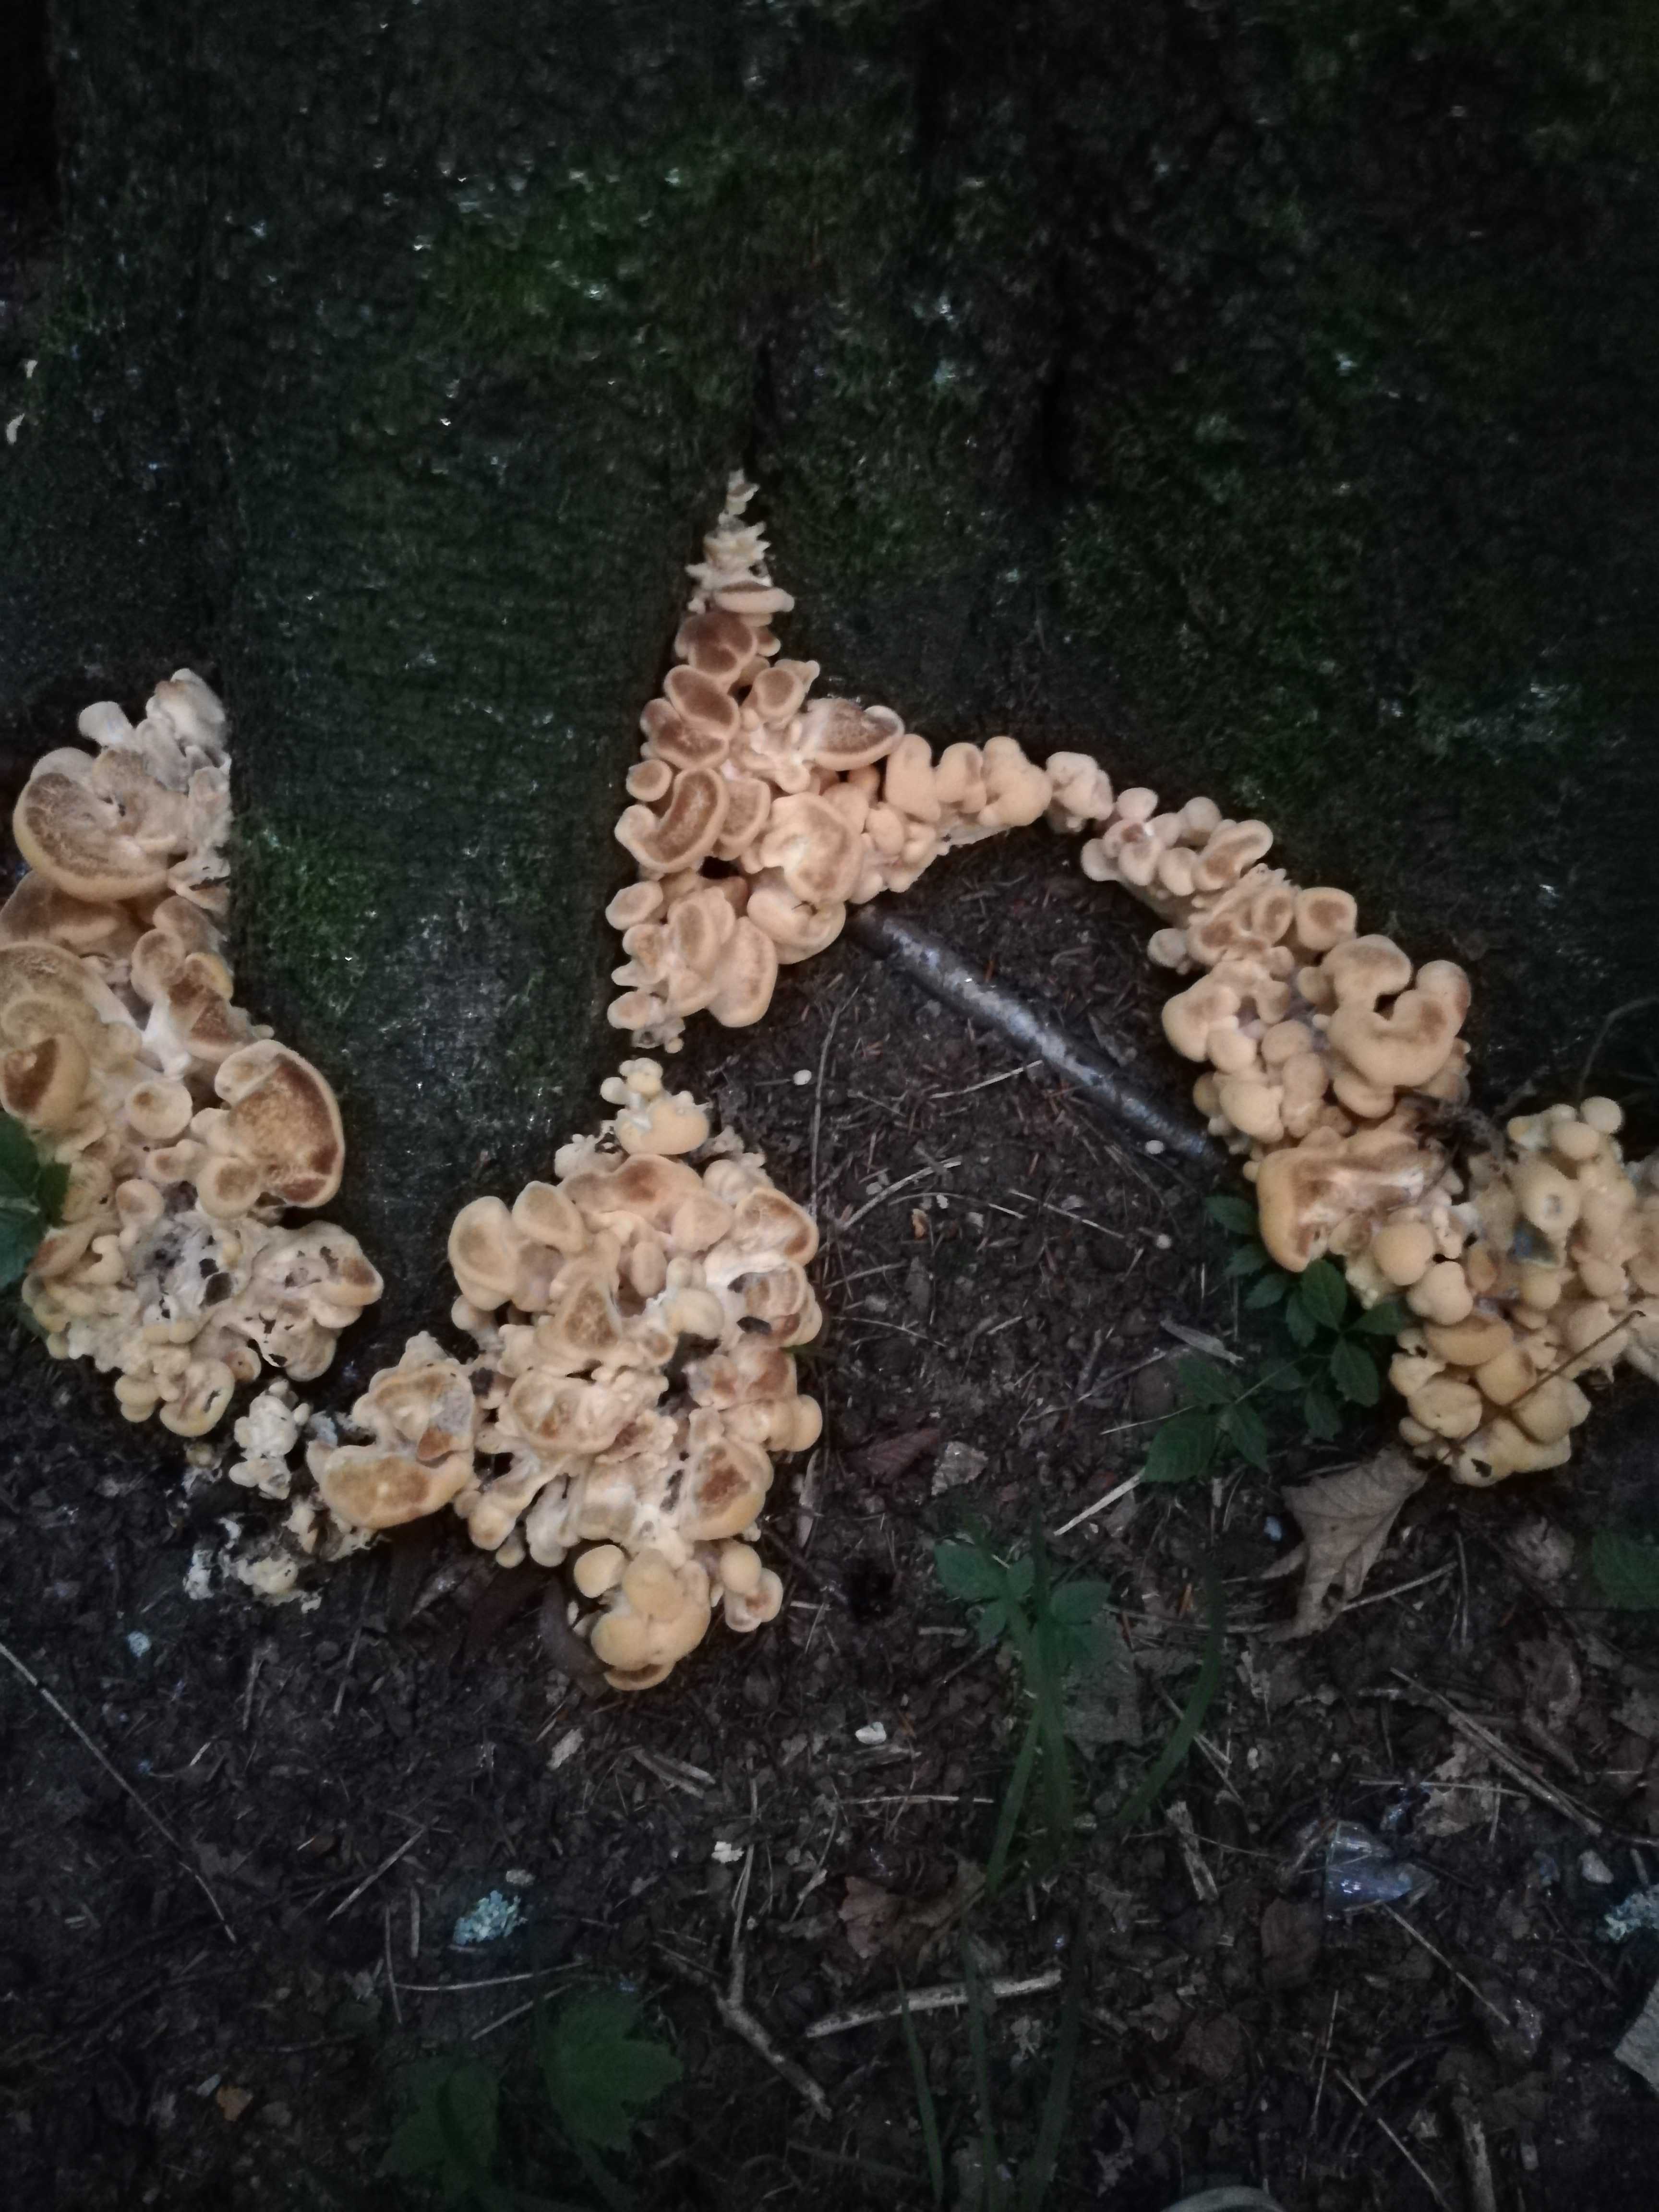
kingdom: Fungi
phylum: Basidiomycota
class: Agaricomycetes
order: Polyporales
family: Meripilaceae
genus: Meripilus
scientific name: Meripilus giganteus
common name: kæmpeporesvamp
